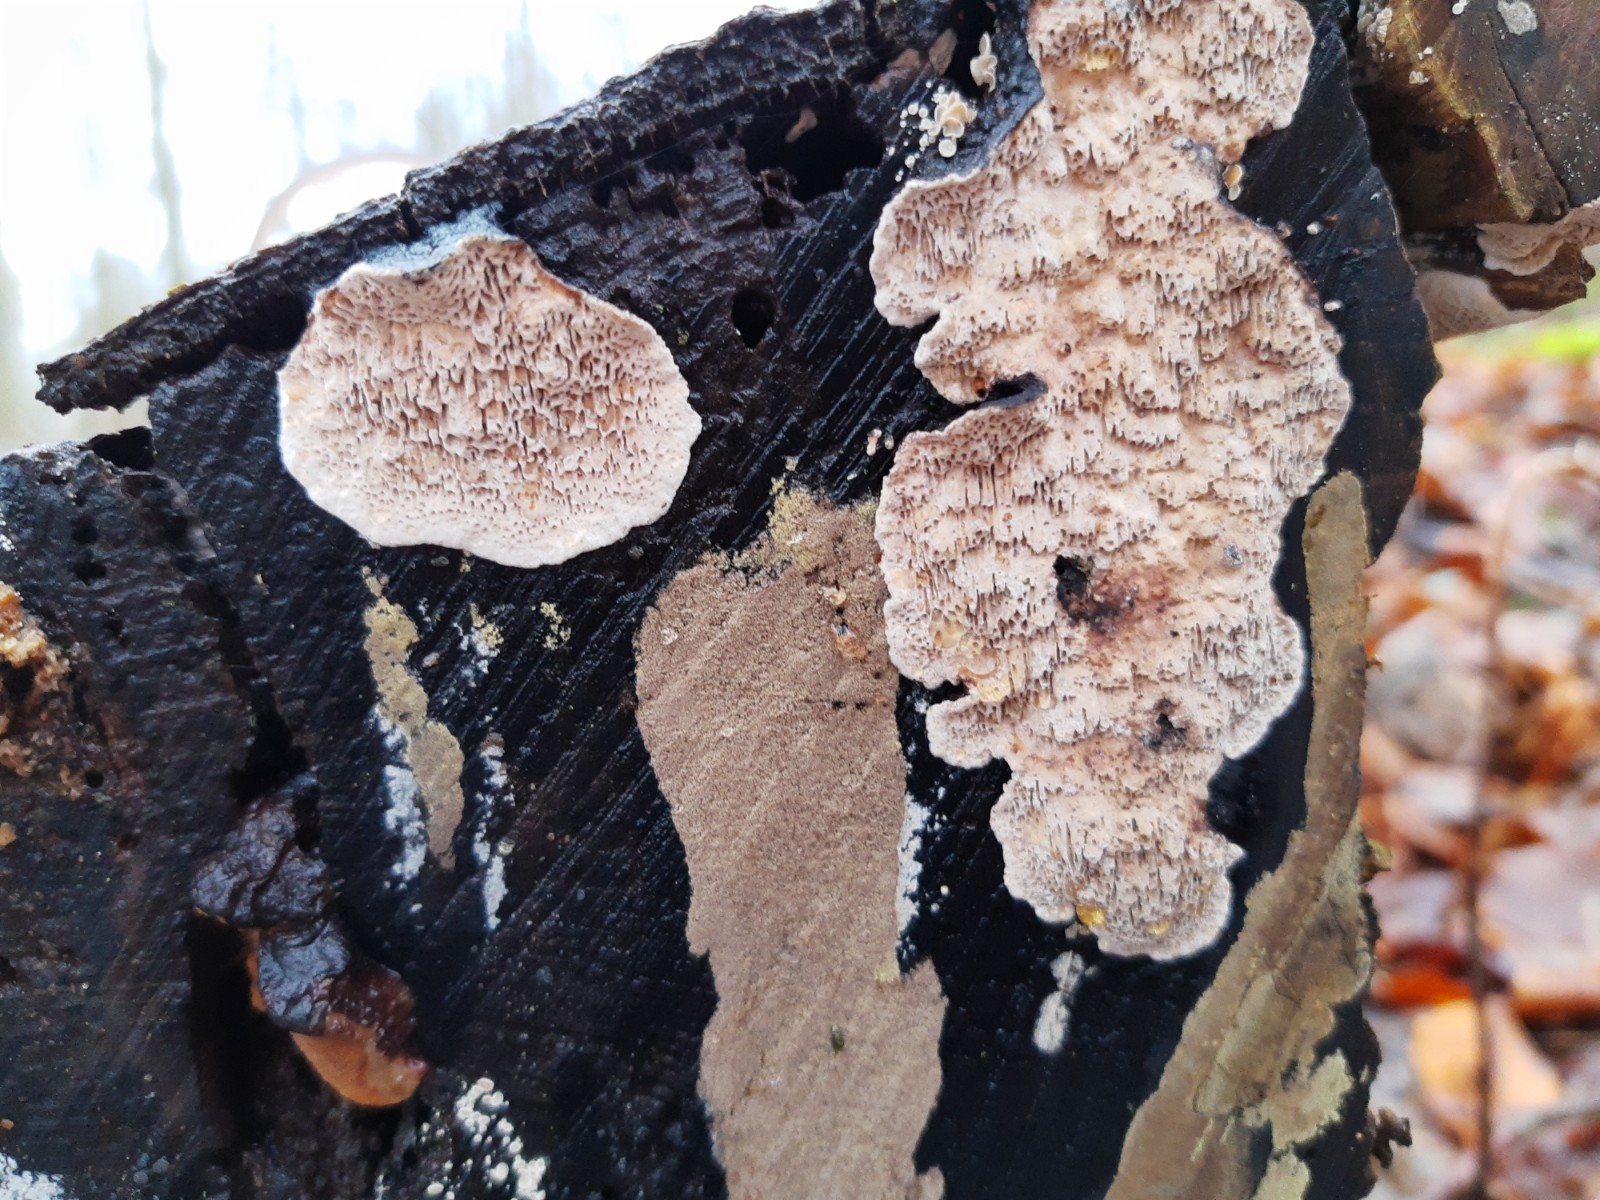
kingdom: Fungi
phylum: Basidiomycota
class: Agaricomycetes
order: Polyporales
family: Polyporaceae
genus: Podofomes
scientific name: Podofomes mollis
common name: blød begporesvamp
